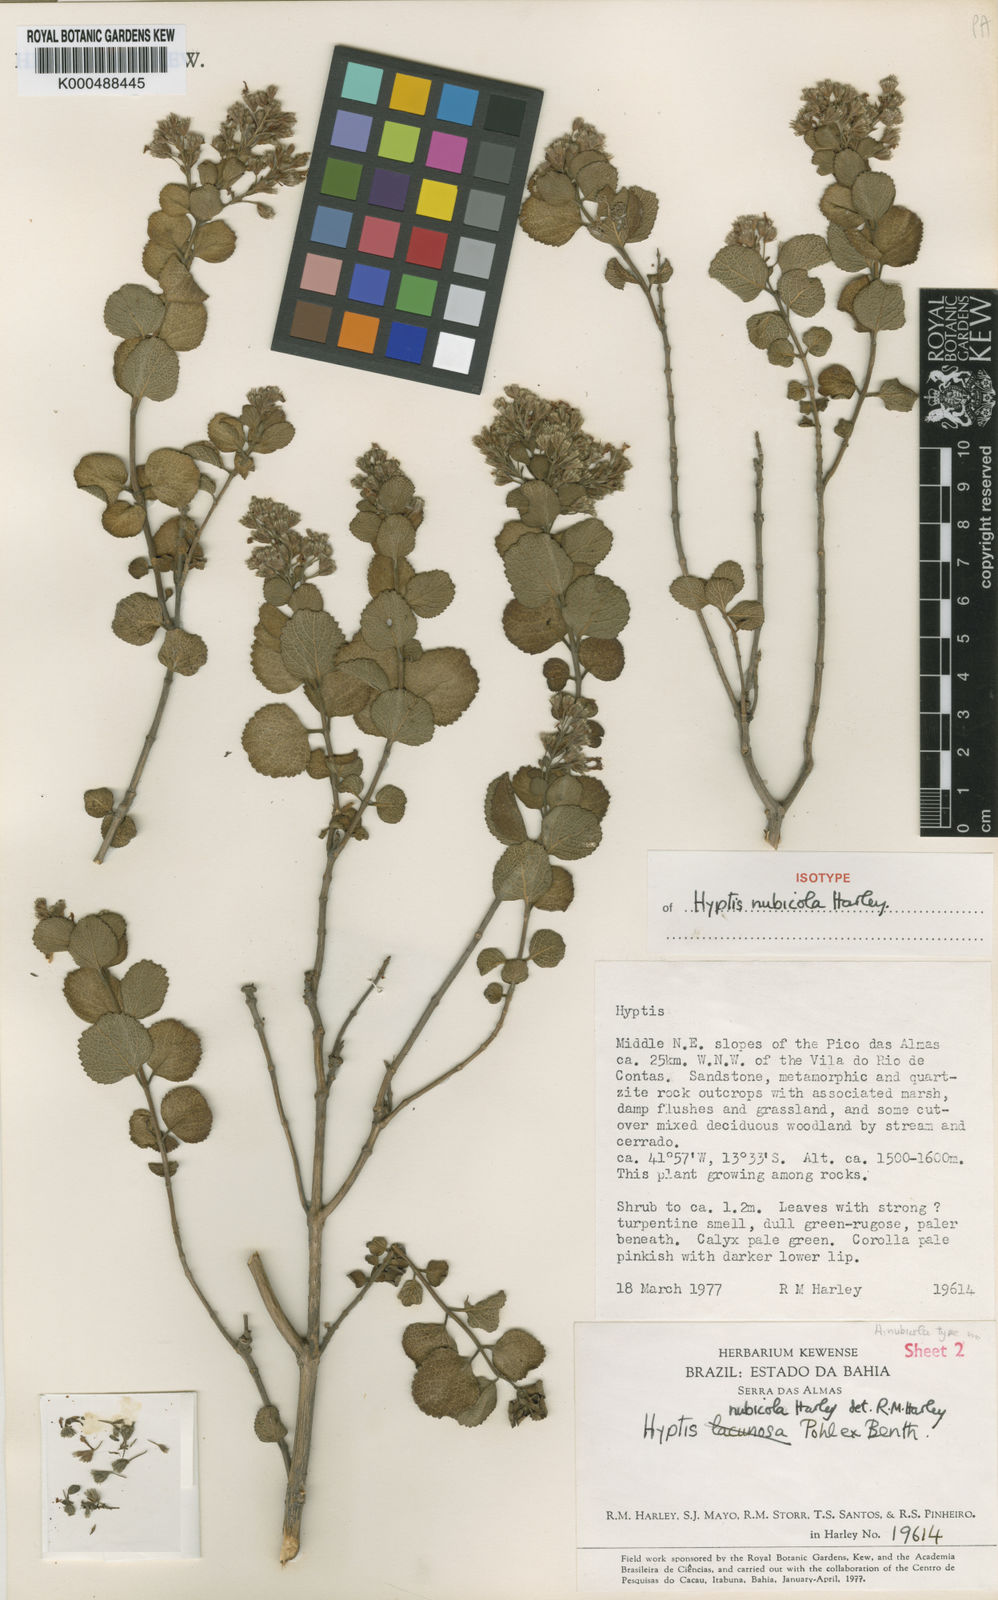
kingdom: Plantae
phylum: Tracheophyta
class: Magnoliopsida
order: Lamiales
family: Lamiaceae
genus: Oocephalus
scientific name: Oocephalus nubicola
